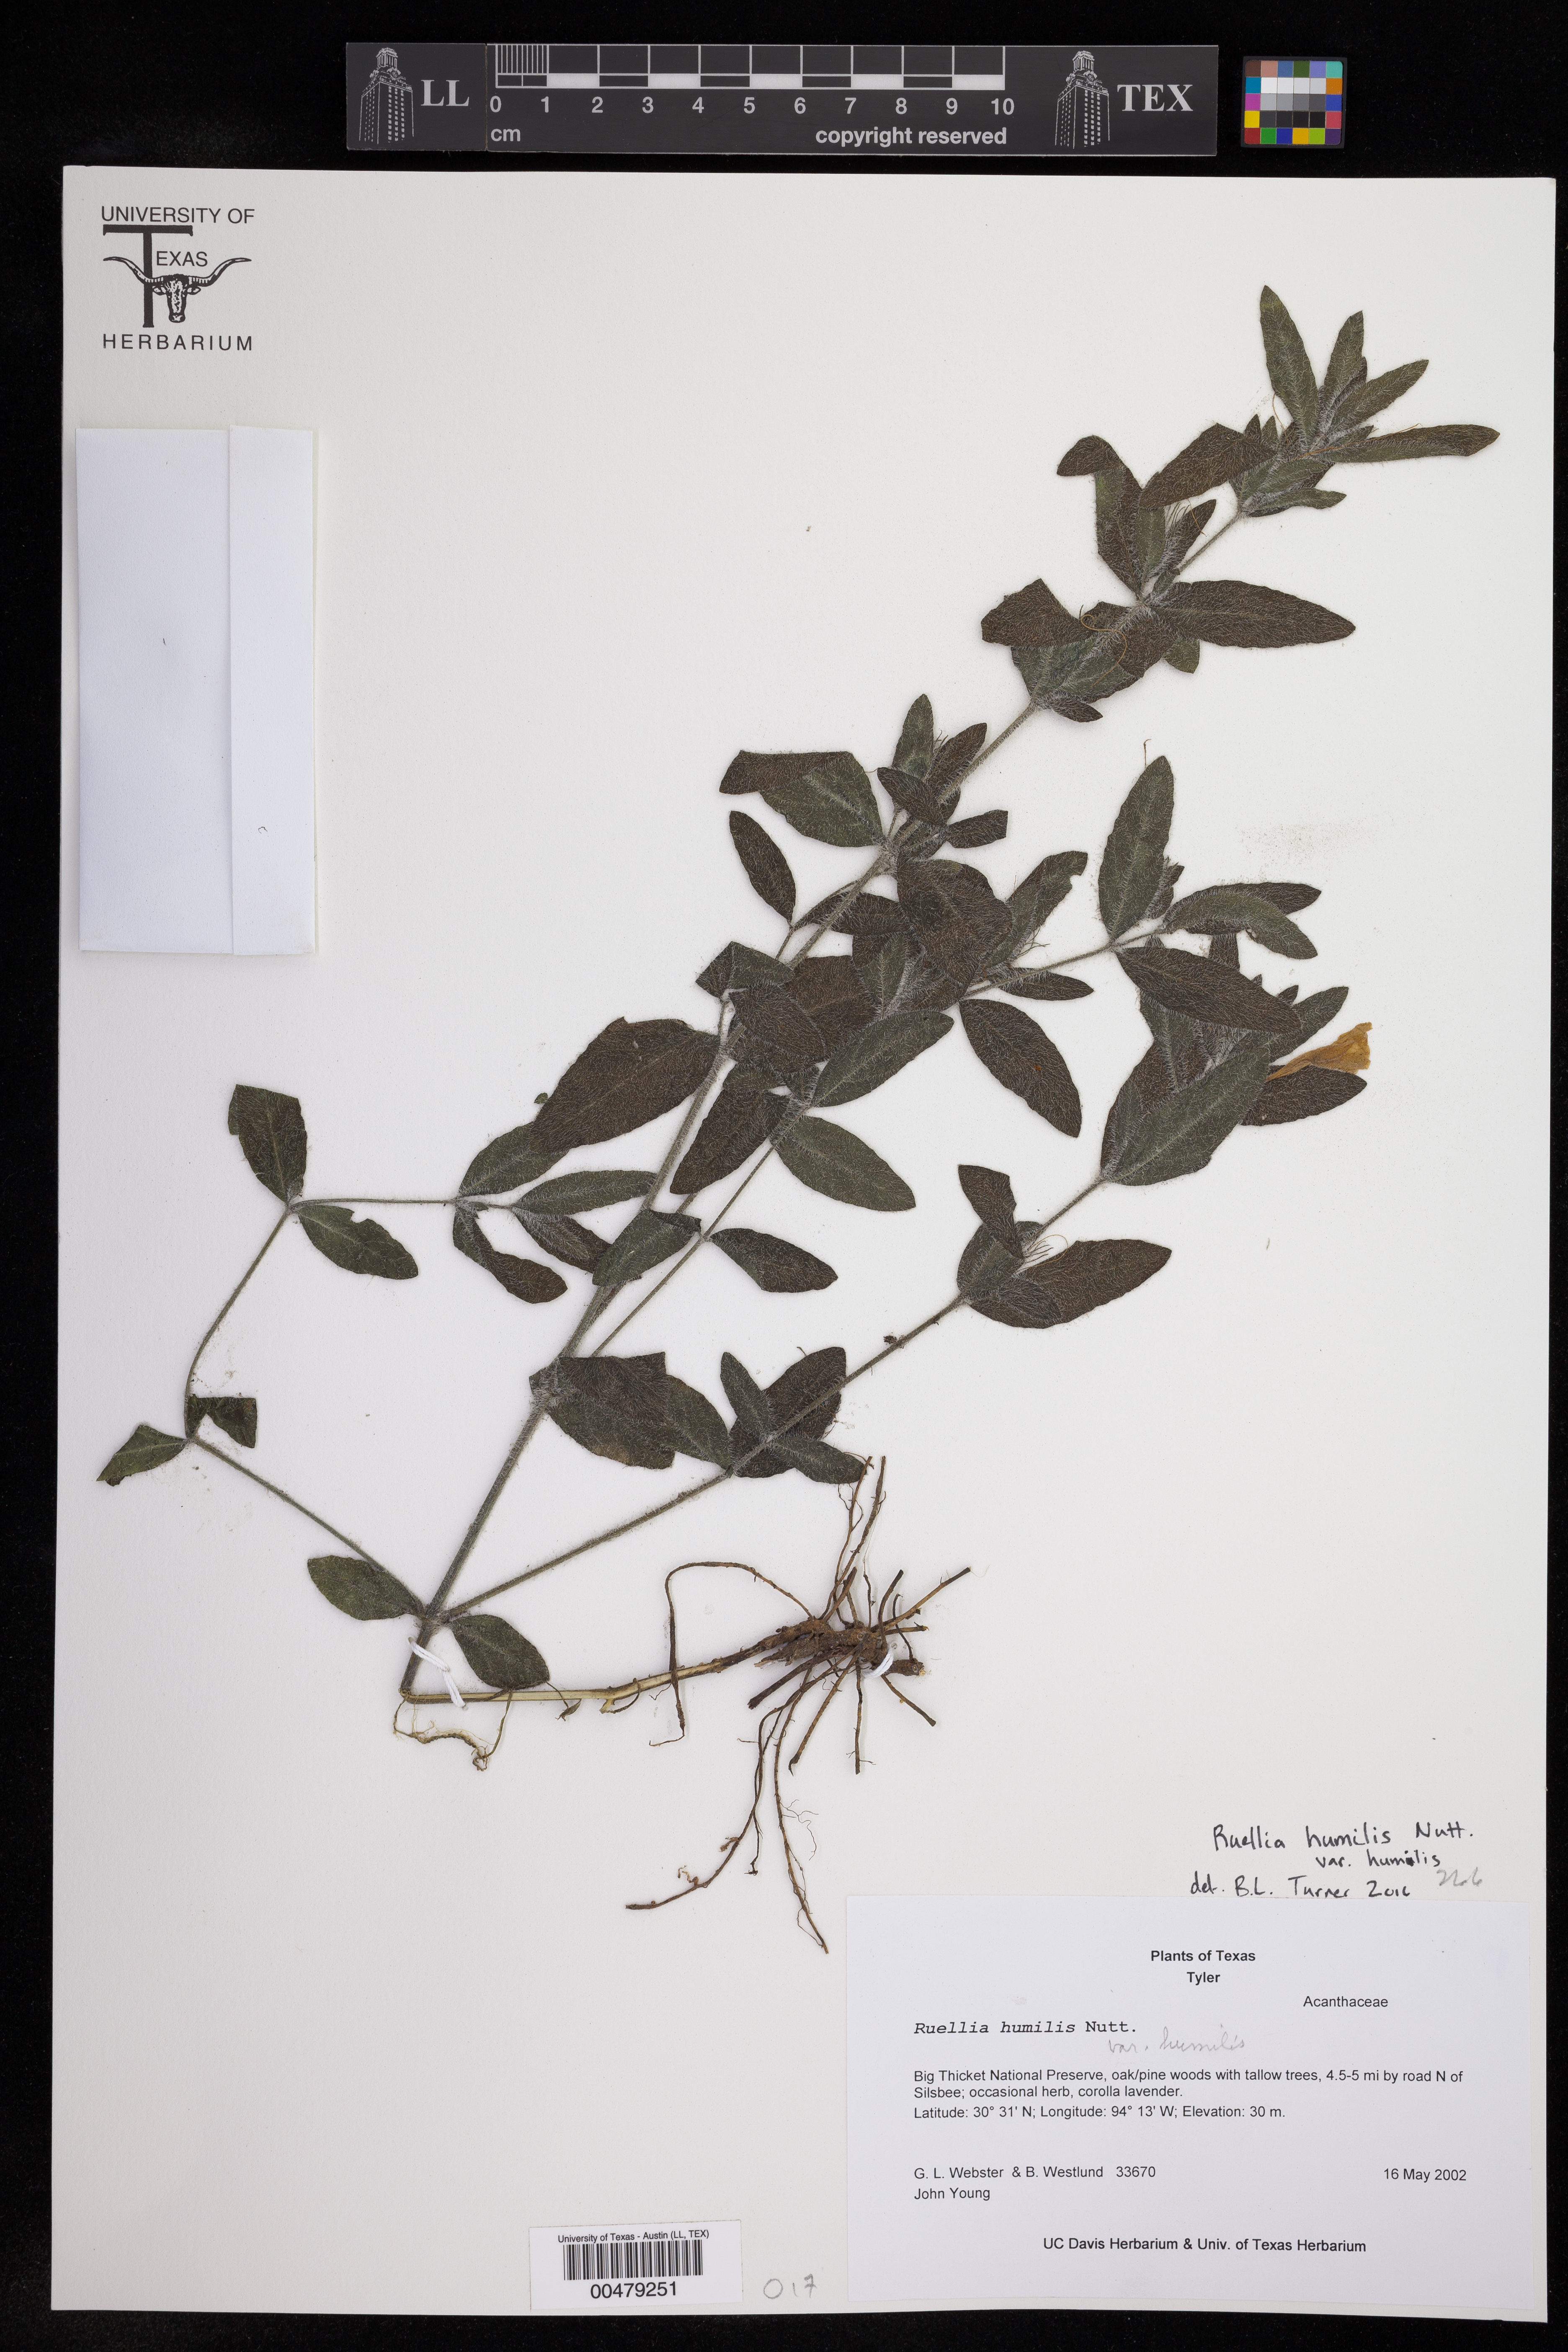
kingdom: Plantae
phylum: Tracheophyta
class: Magnoliopsida
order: Lamiales
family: Acanthaceae
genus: Ruellia
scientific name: Ruellia humilis
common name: Fringe-leaf ruellia
